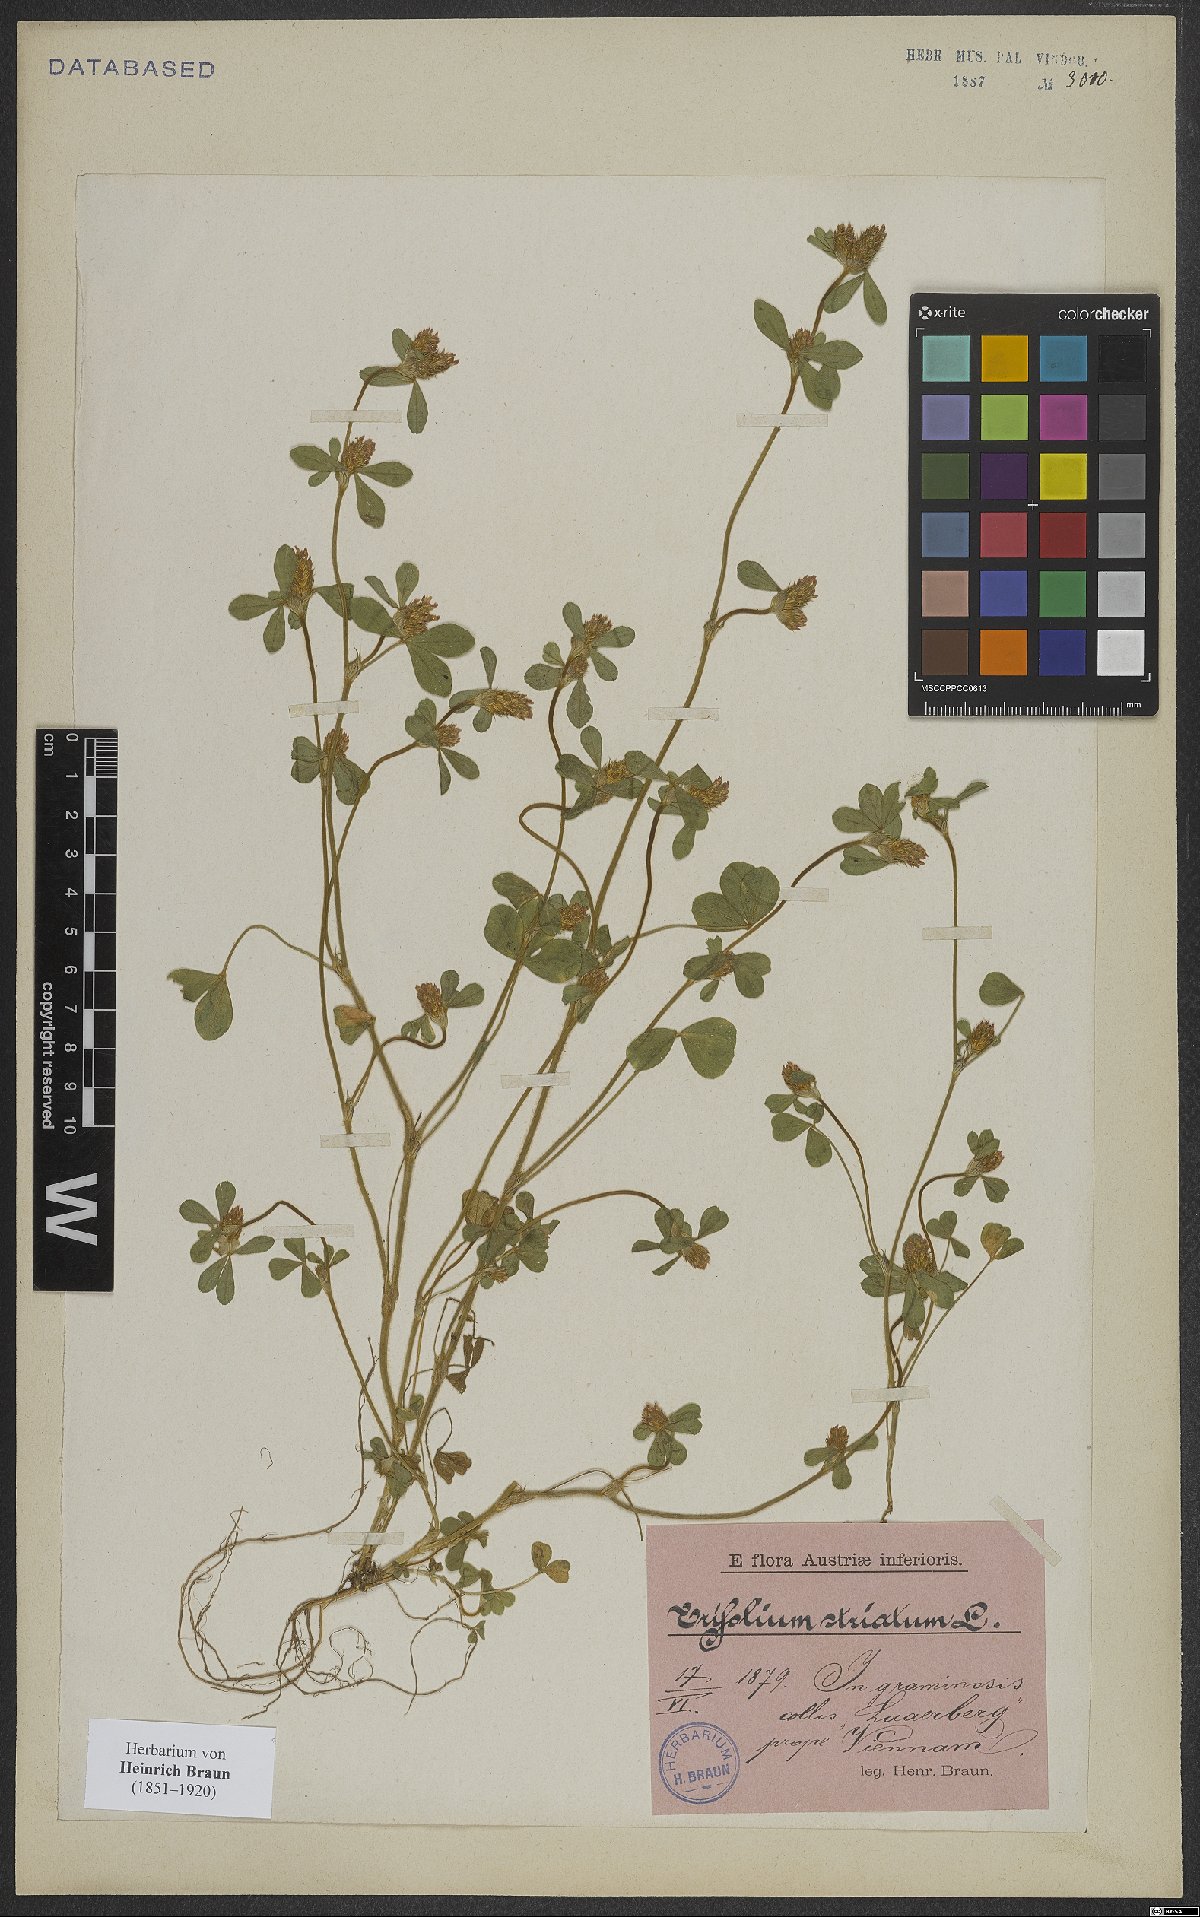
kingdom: Plantae
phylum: Tracheophyta
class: Magnoliopsida
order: Fabales
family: Fabaceae
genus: Trifolium
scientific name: Trifolium striatum
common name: Knotted clover
